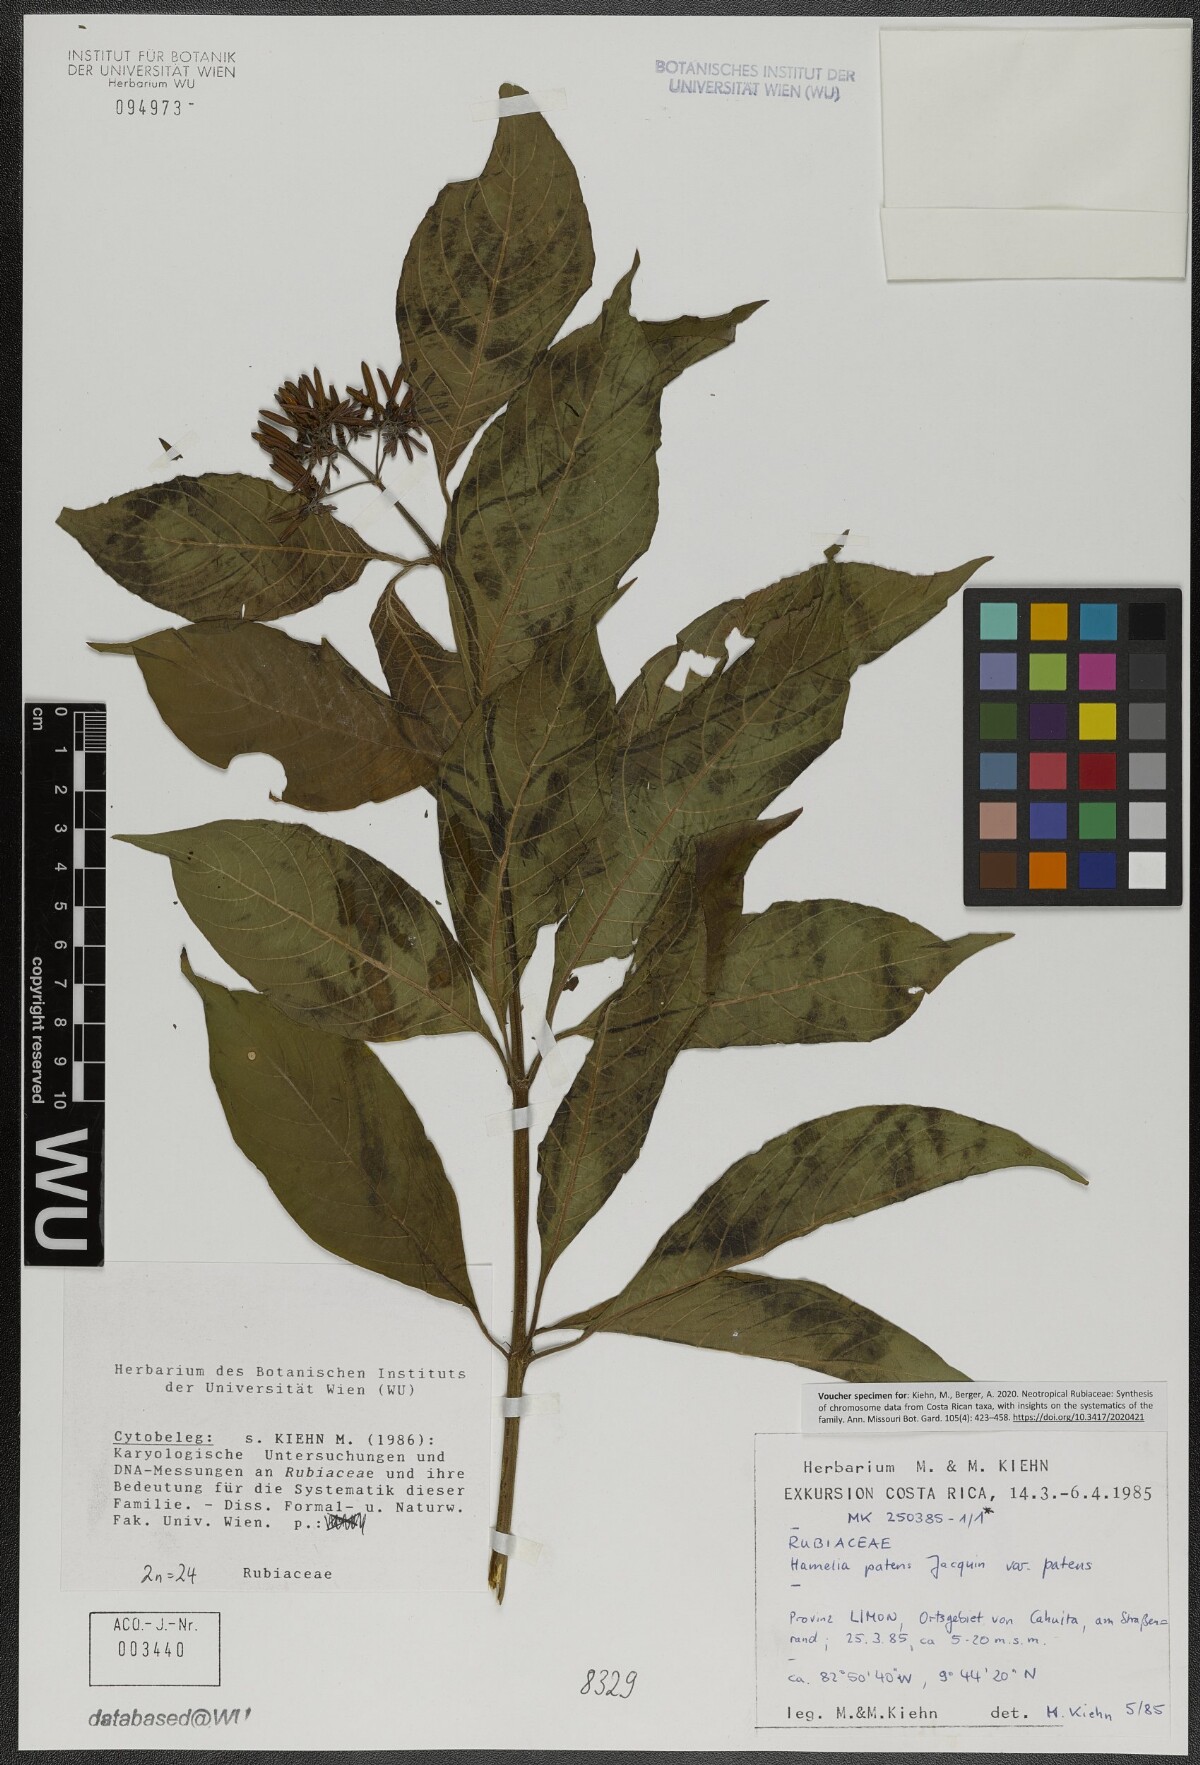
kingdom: Plantae
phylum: Tracheophyta
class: Magnoliopsida
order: Gentianales
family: Rubiaceae
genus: Hamelia
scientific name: Hamelia patens
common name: Redhead
